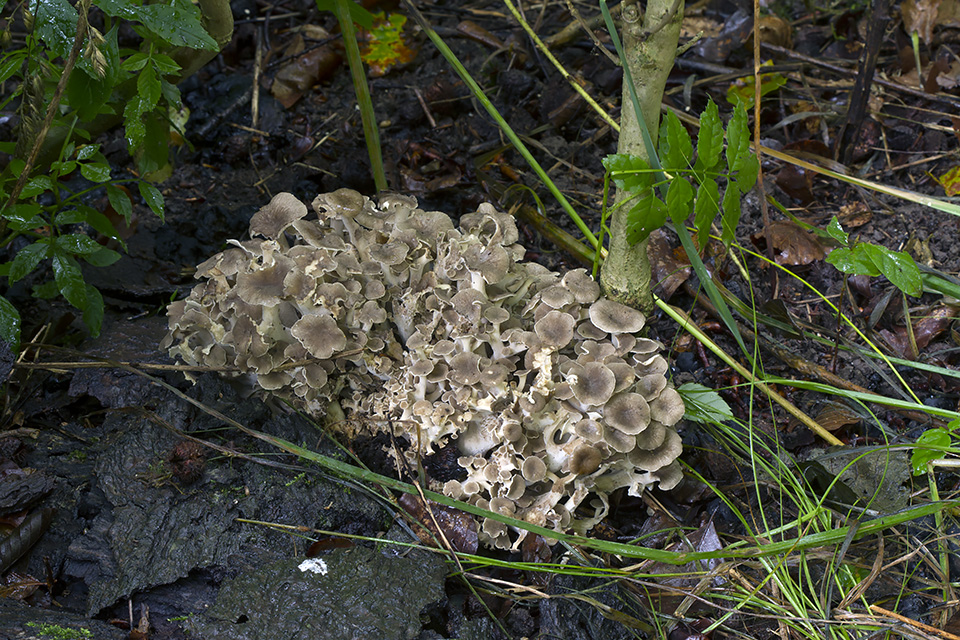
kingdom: Fungi
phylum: Basidiomycota
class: Agaricomycetes
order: Polyporales
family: Polyporaceae
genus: Polyporus
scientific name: Polyporus umbellatus
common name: skærmformet stilkporesvamp
